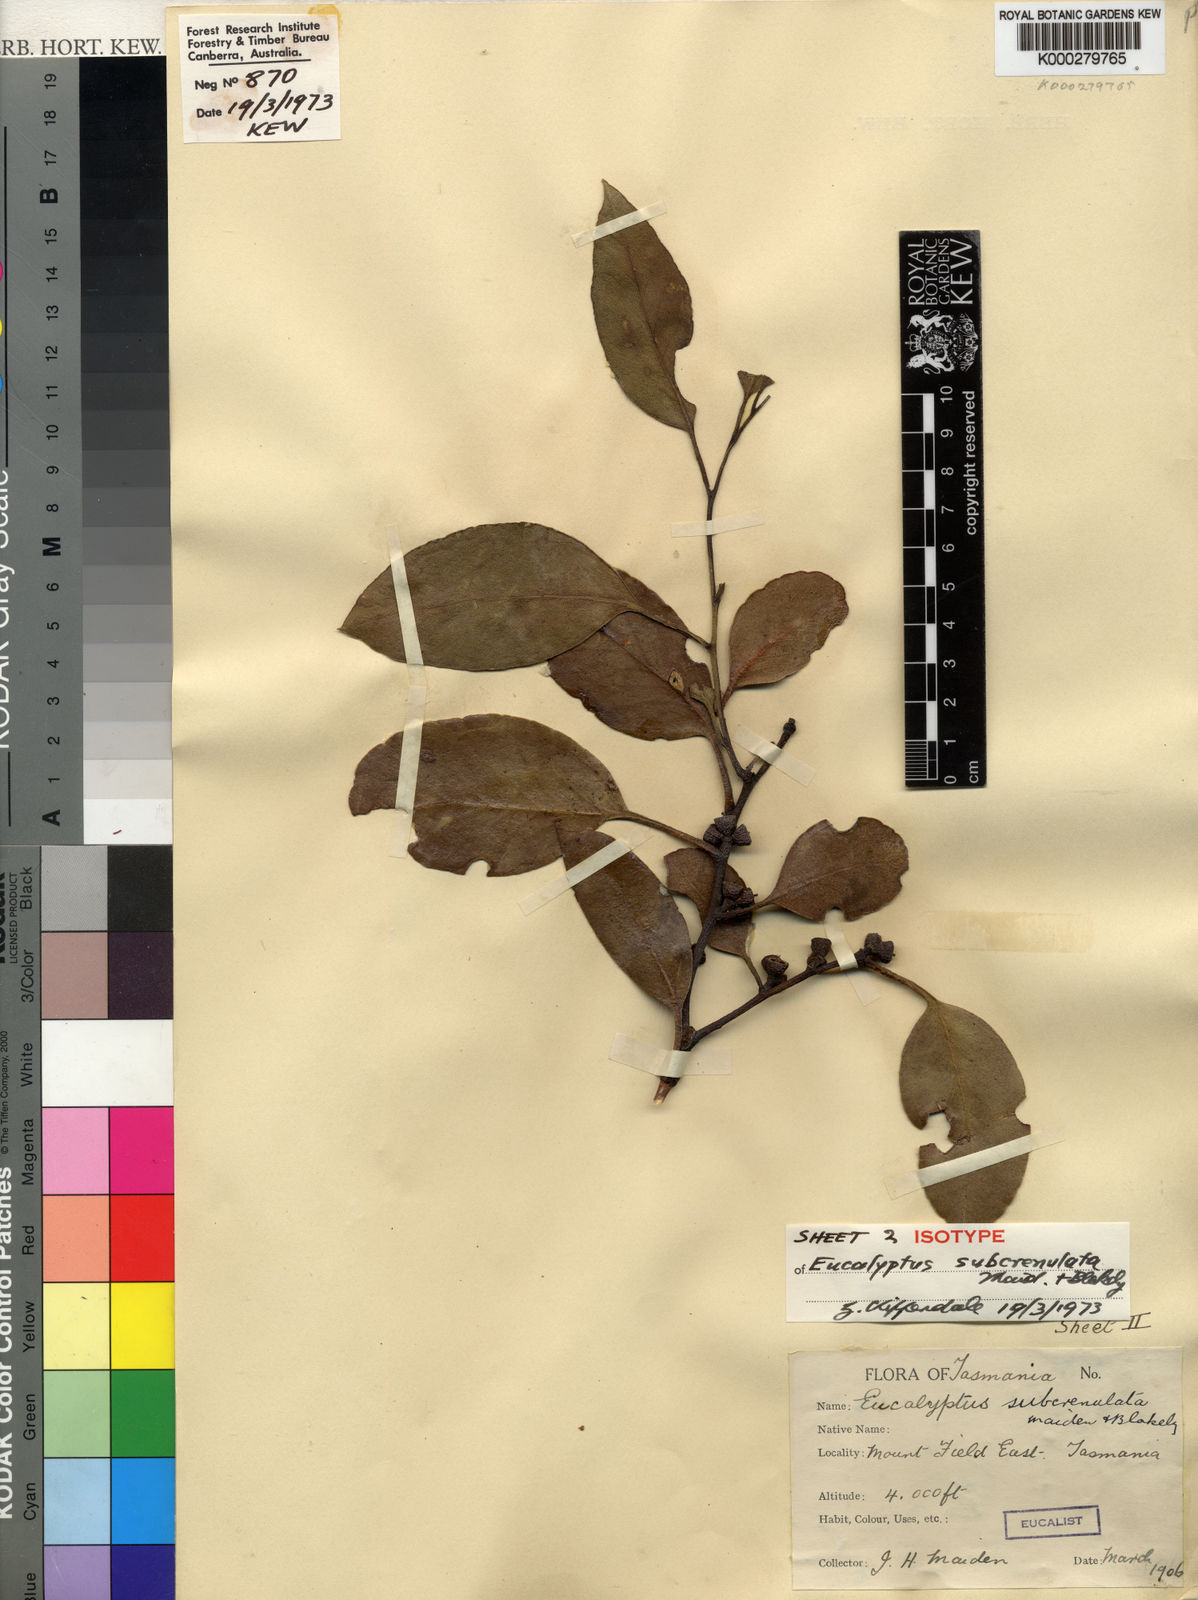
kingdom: Plantae
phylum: Tracheophyta
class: Magnoliopsida
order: Myrtales
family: Myrtaceae
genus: Eucalyptus
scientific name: Eucalyptus subcrenulata
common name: Alpine yellow gum
